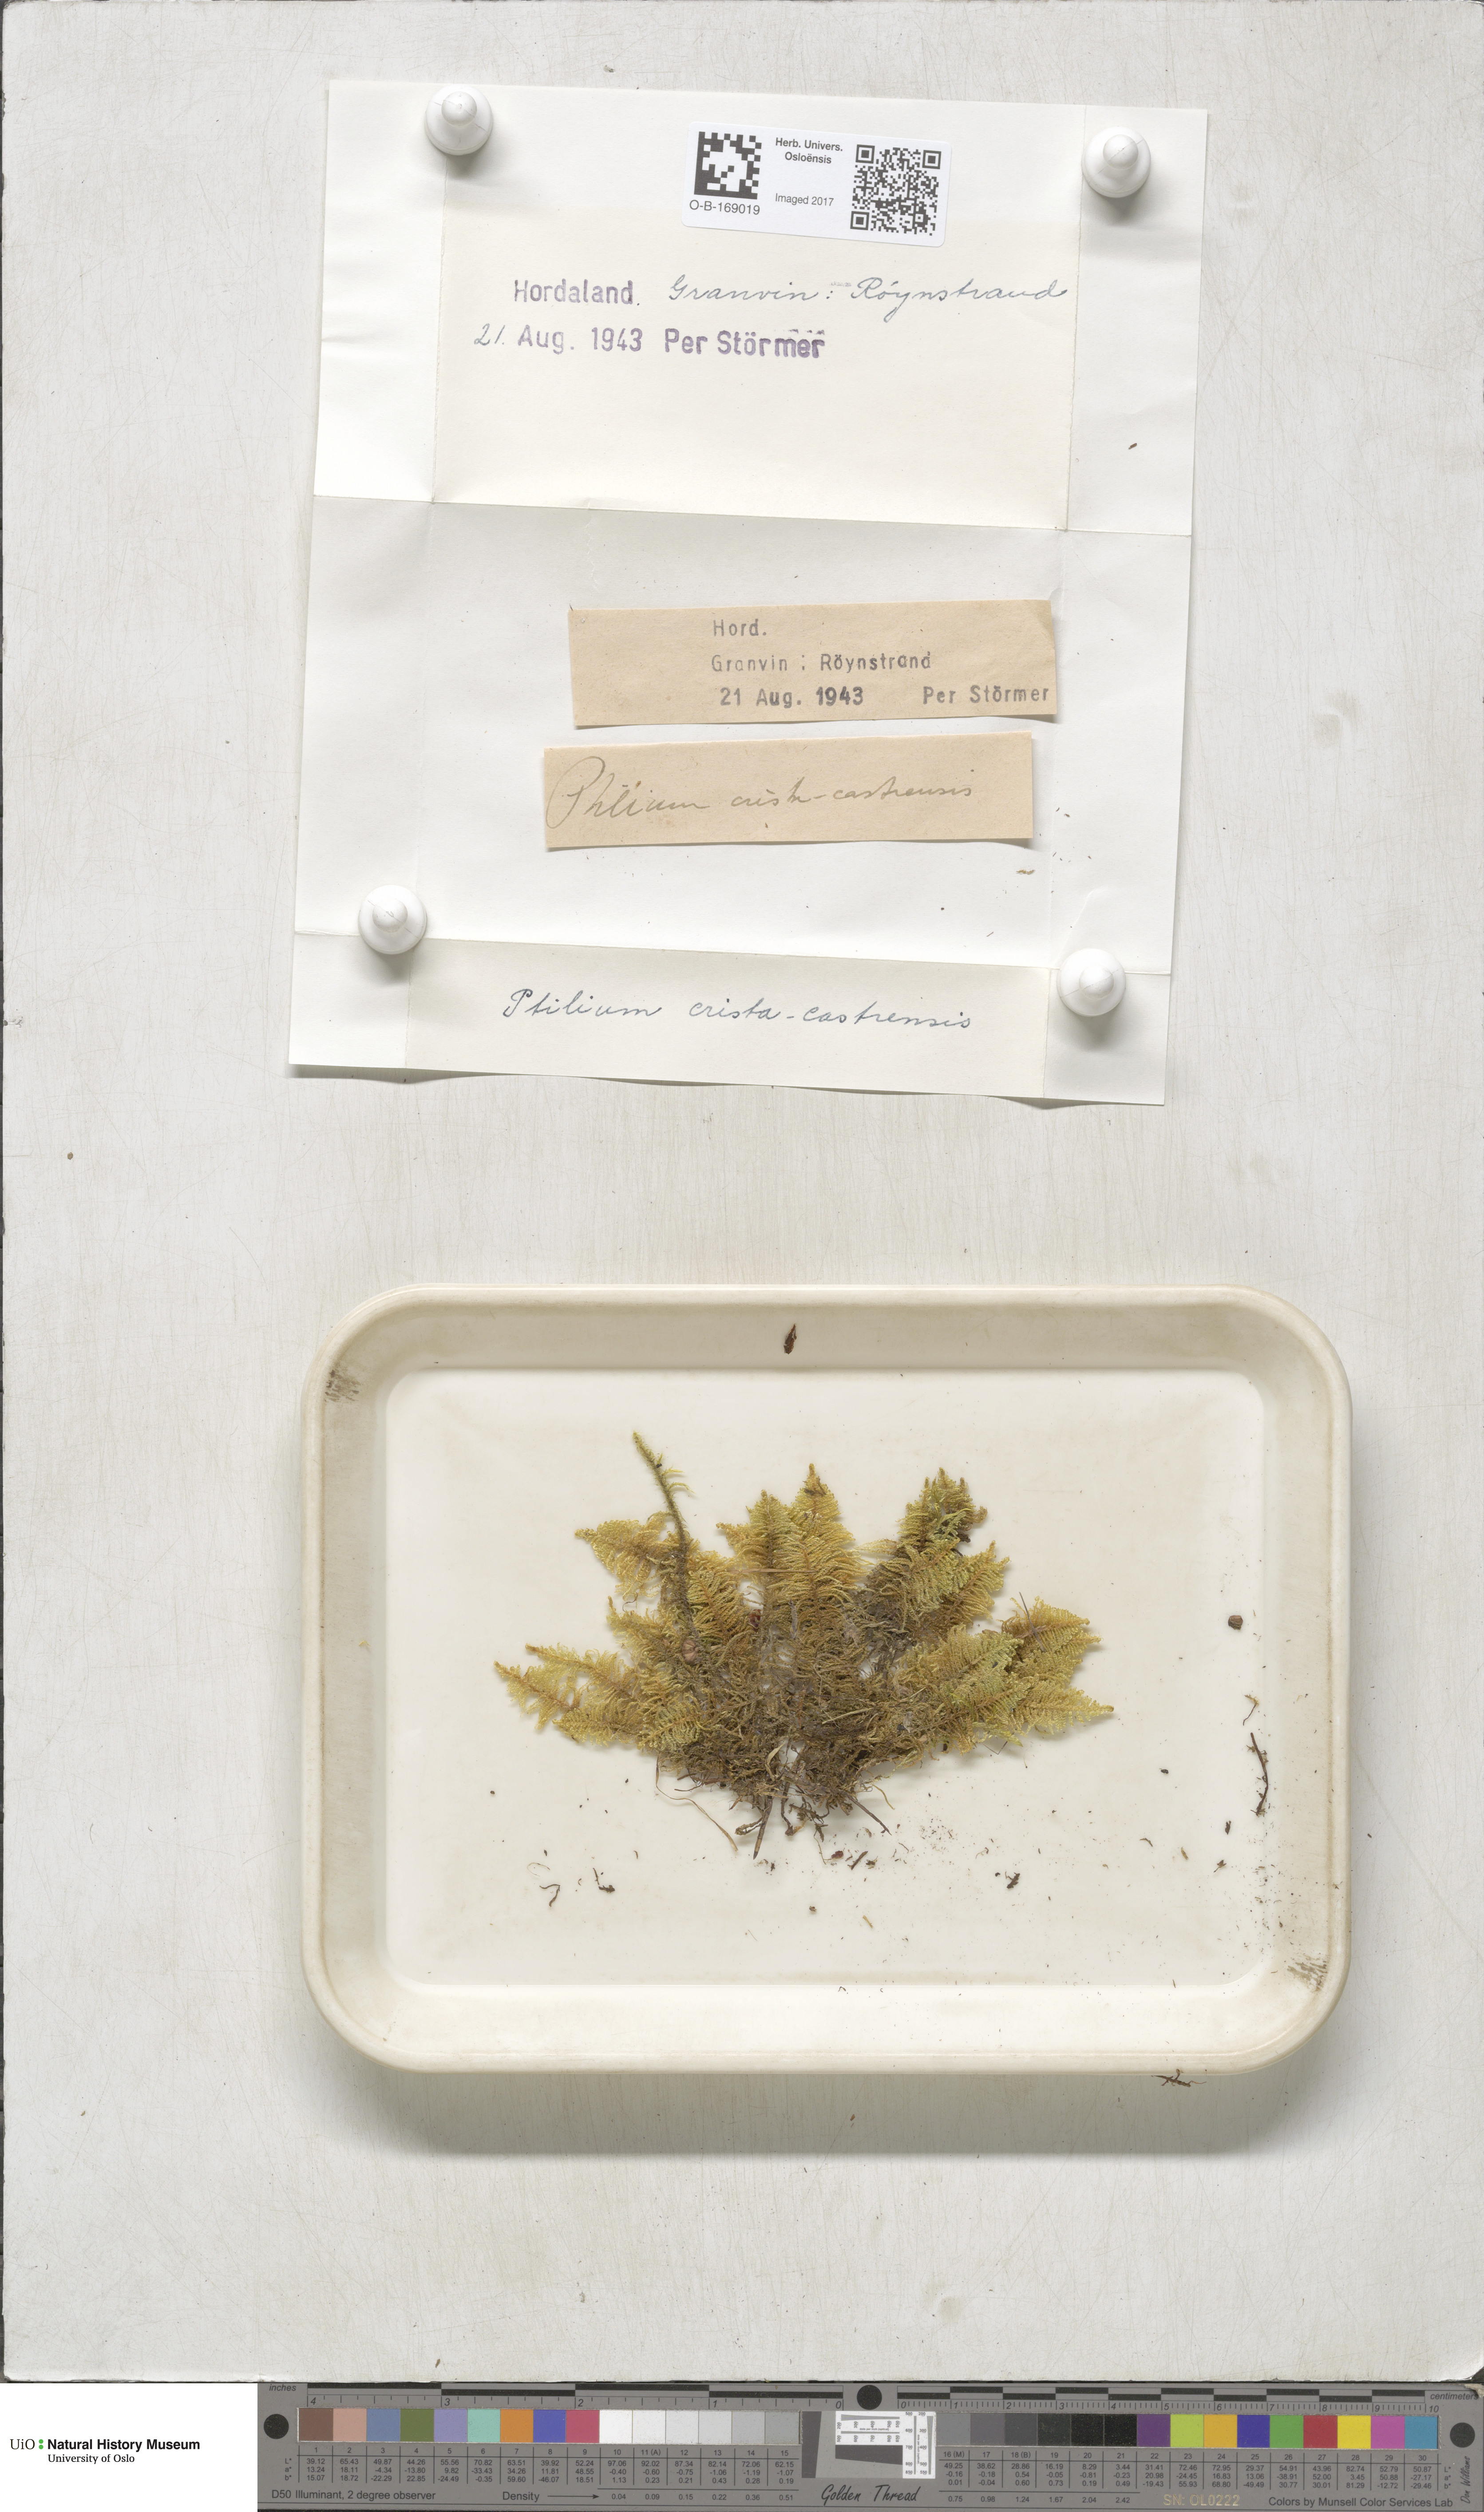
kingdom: Plantae
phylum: Bryophyta
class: Bryopsida
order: Hypnales
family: Pylaisiaceae
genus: Ptilium
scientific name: Ptilium crista-castrensis
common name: Knight's plume moss
